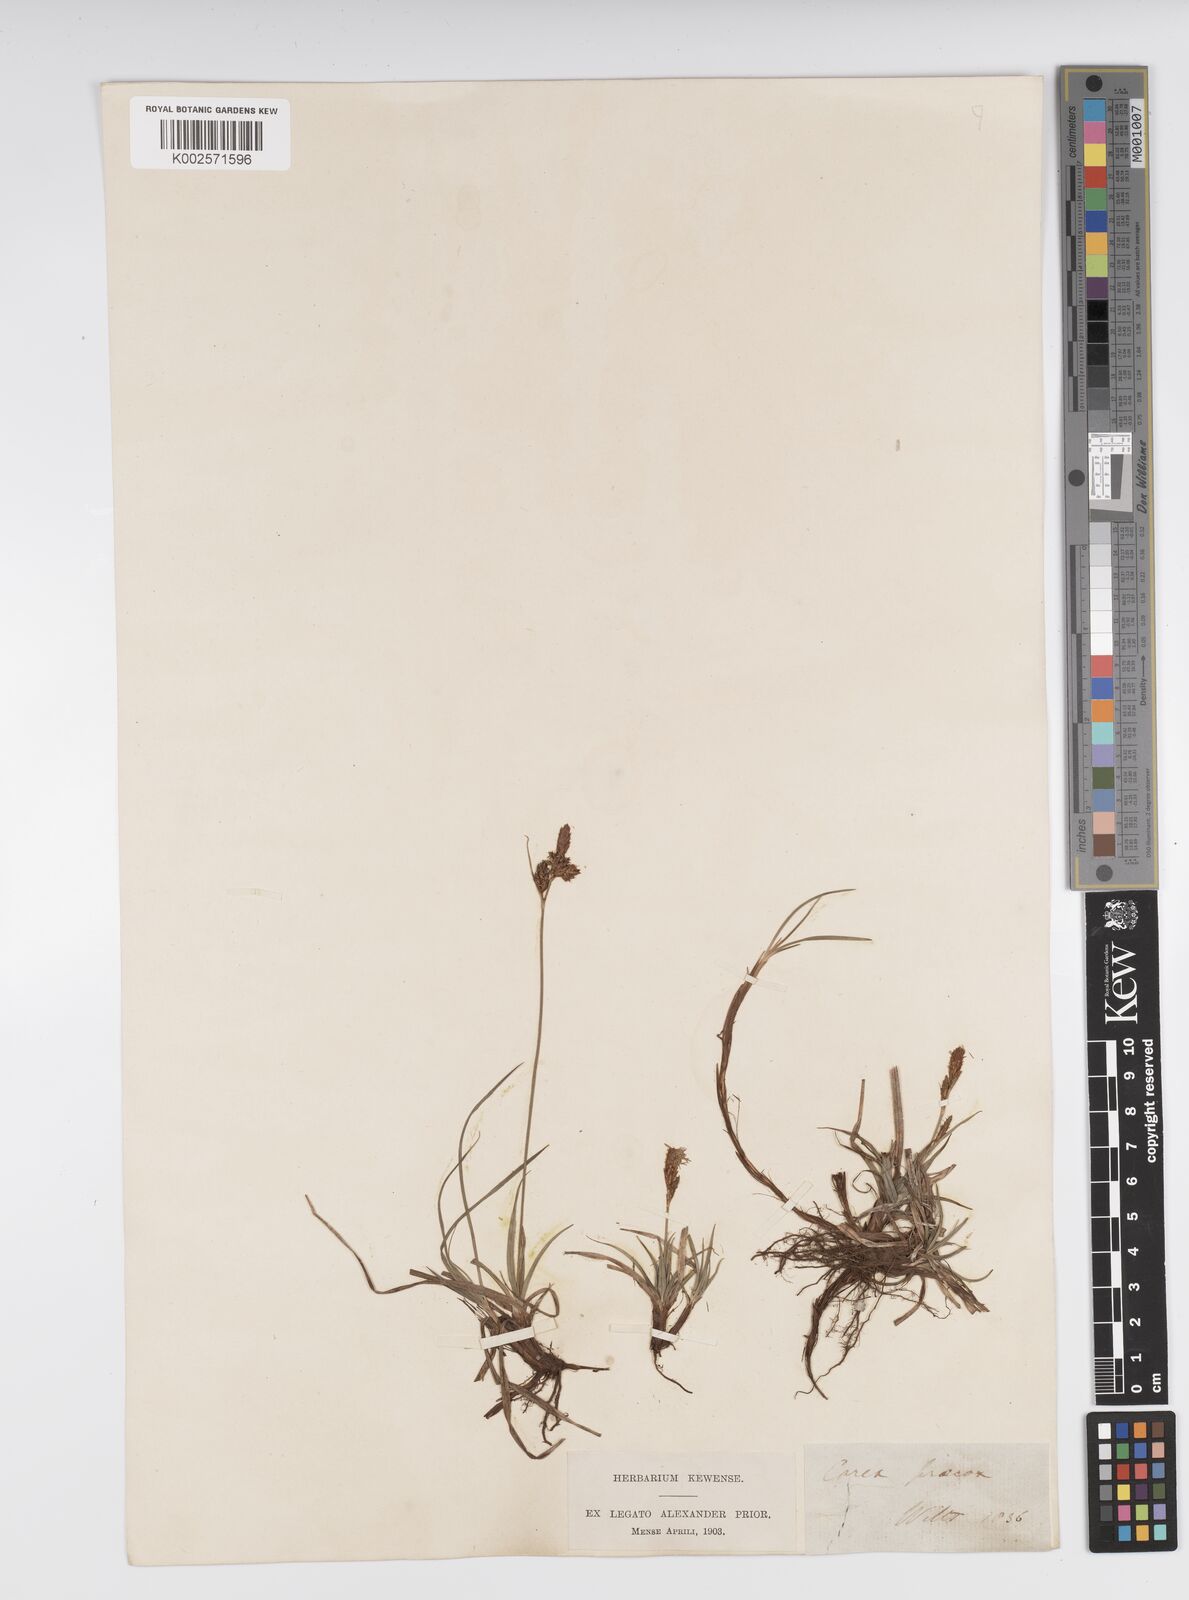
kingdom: Plantae
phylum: Tracheophyta
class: Liliopsida
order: Poales
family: Cyperaceae
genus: Carex
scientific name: Carex caryophyllea
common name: Spring sedge
